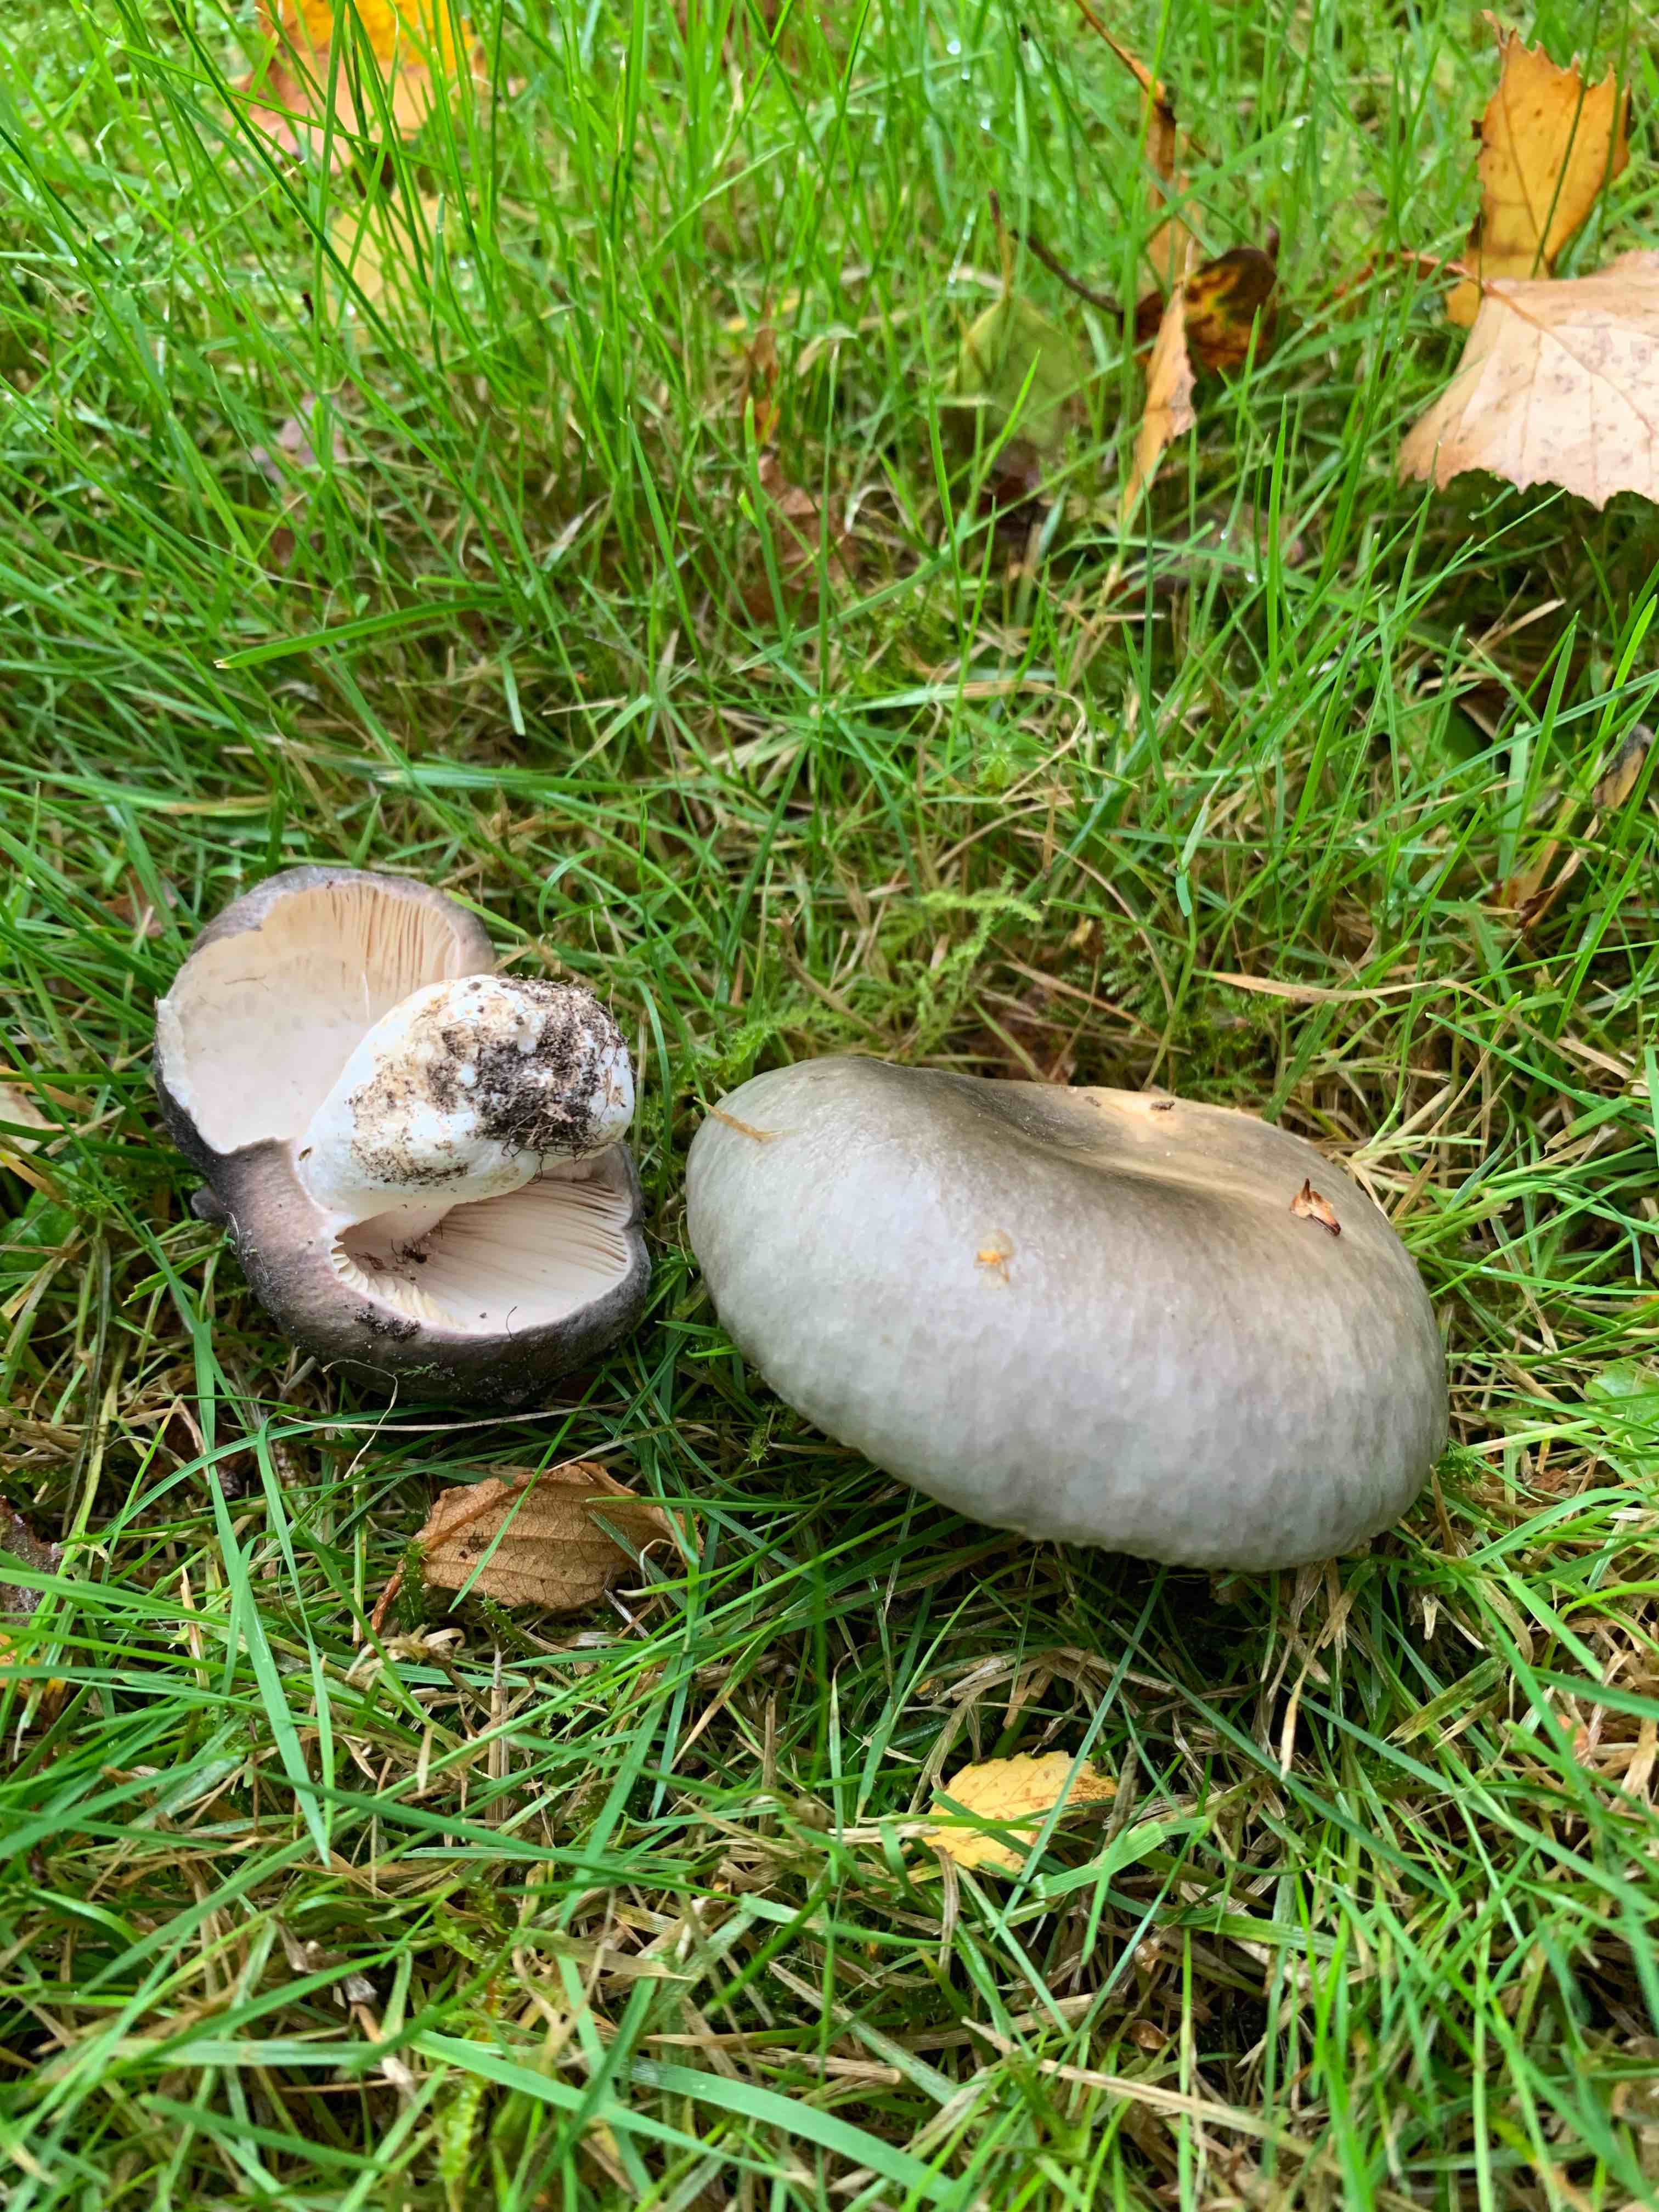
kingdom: Fungi
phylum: Basidiomycota
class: Agaricomycetes
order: Russulales
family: Russulaceae
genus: Russula
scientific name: Russula cyanoxantha
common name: broget skørhat
